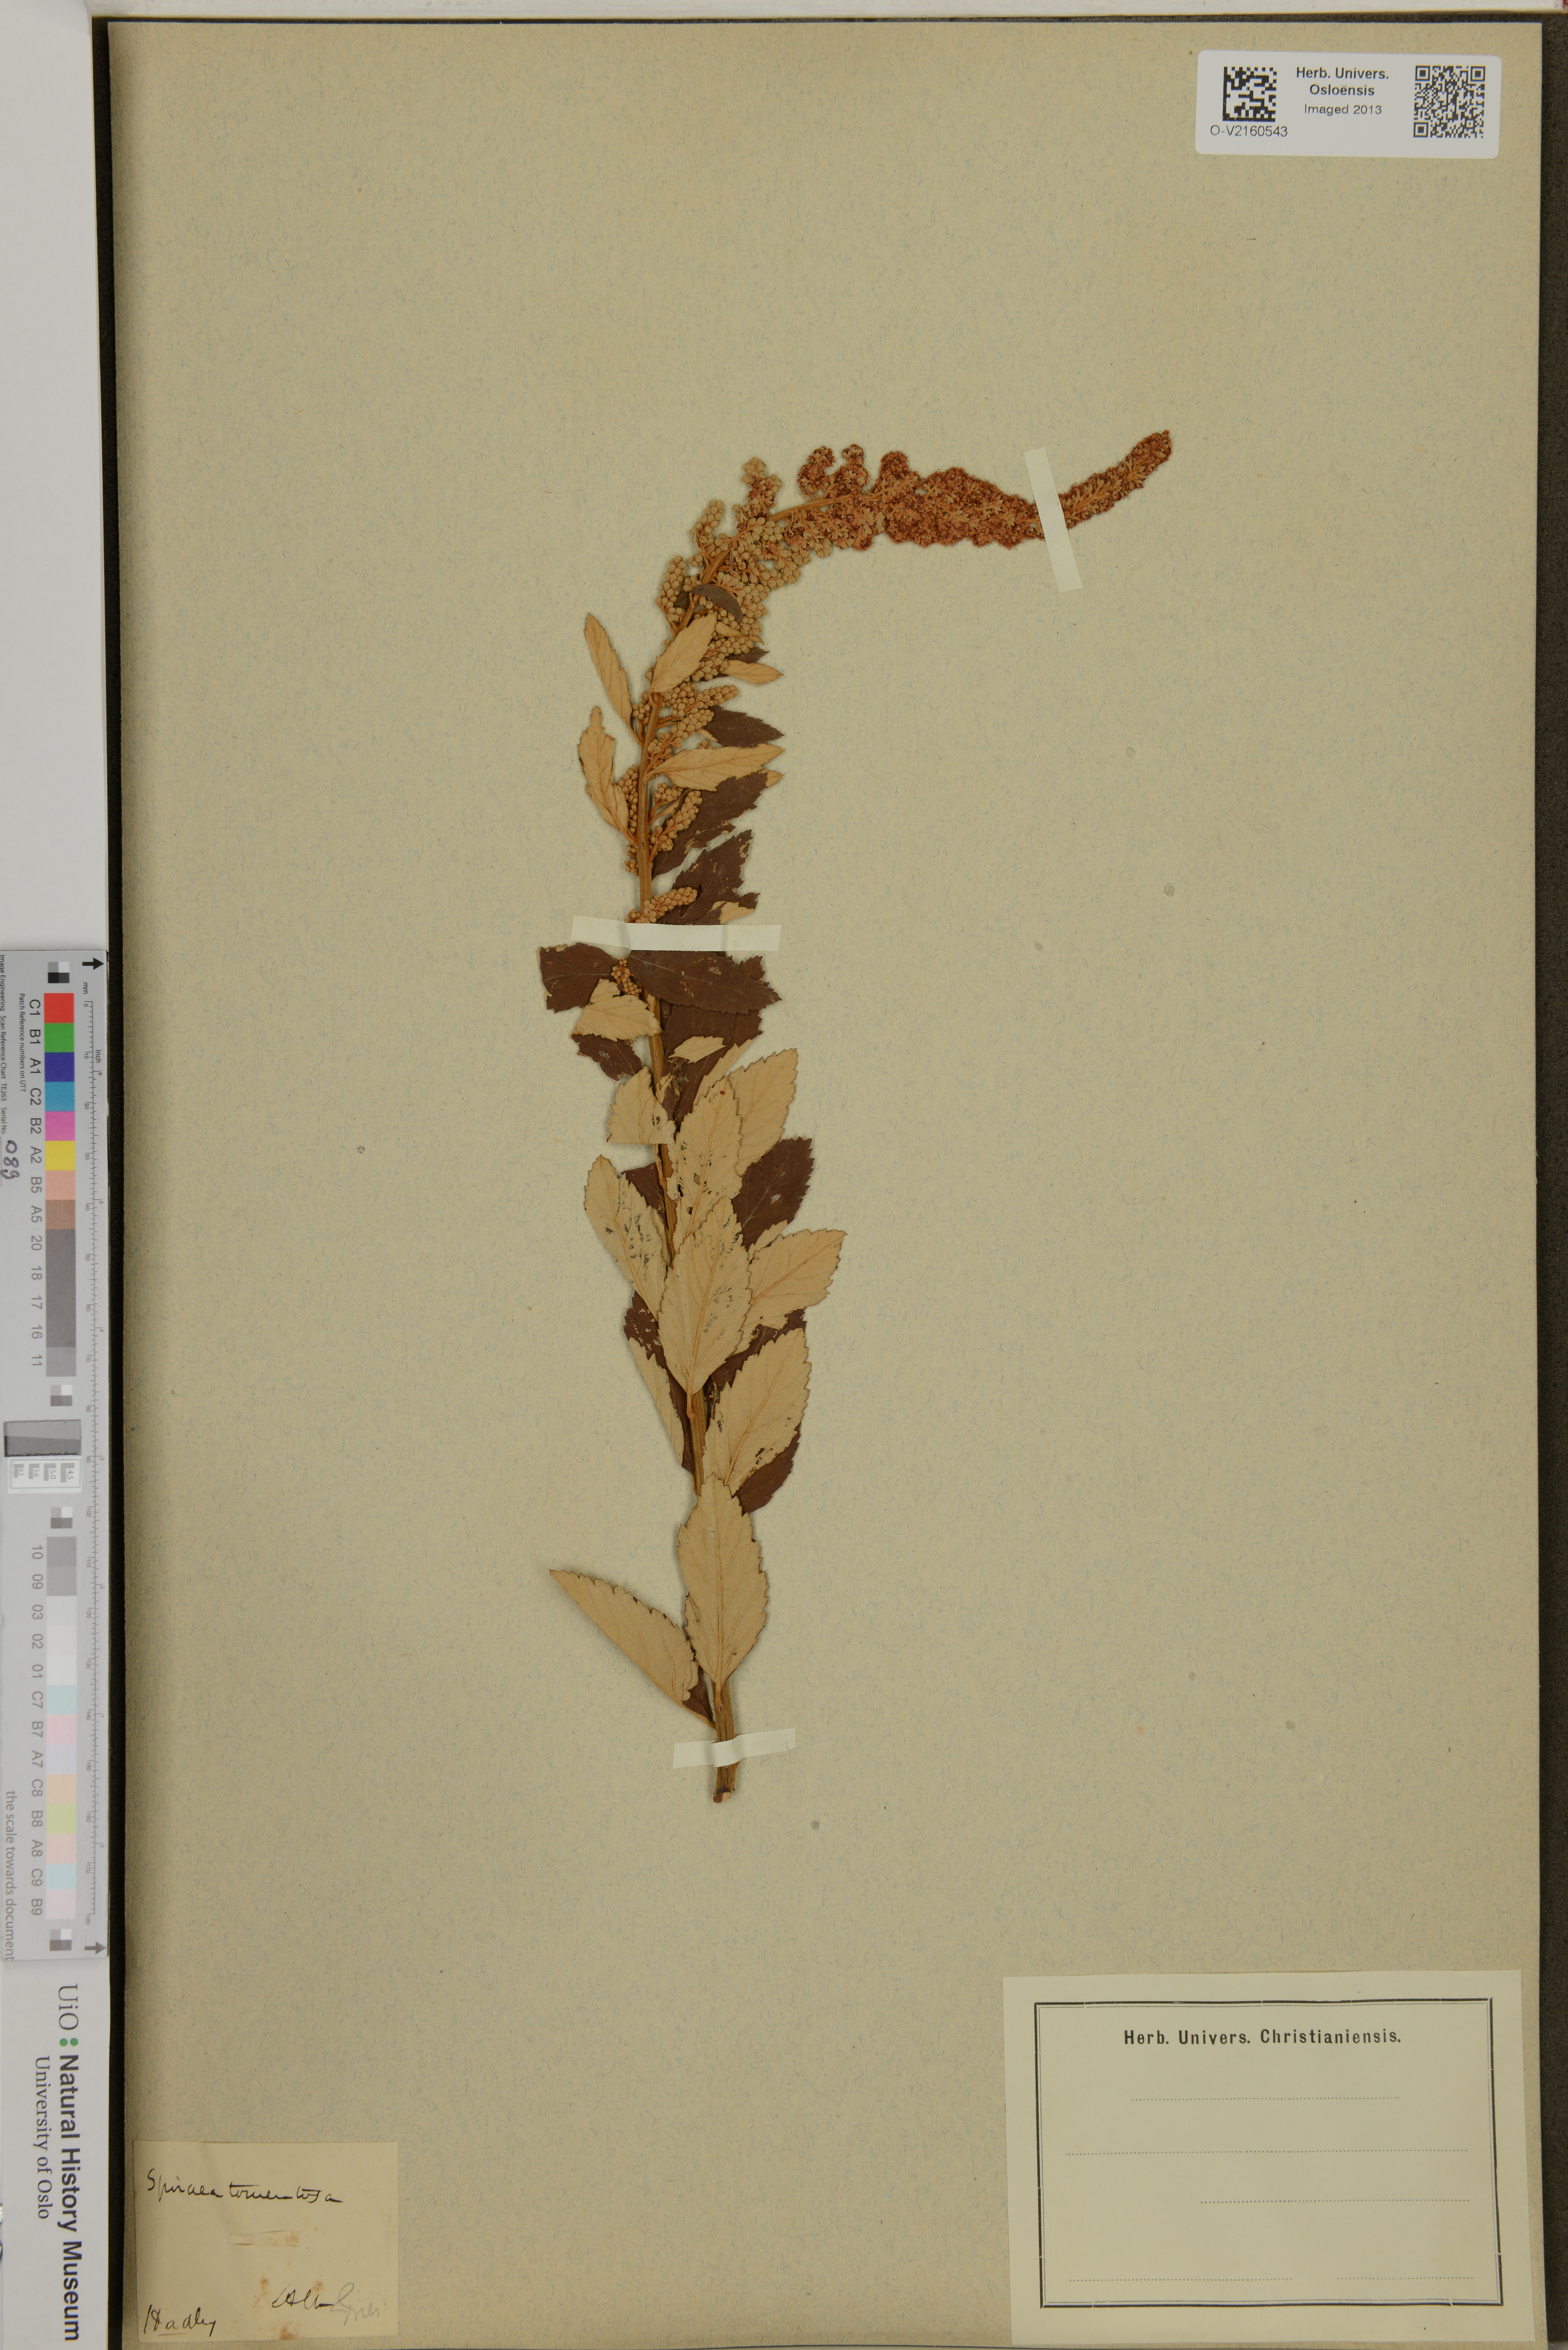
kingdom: Plantae
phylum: Tracheophyta
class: Magnoliopsida
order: Rosales
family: Rosaceae
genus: Spiraea
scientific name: Spiraea tomentosa
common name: Hardhack
